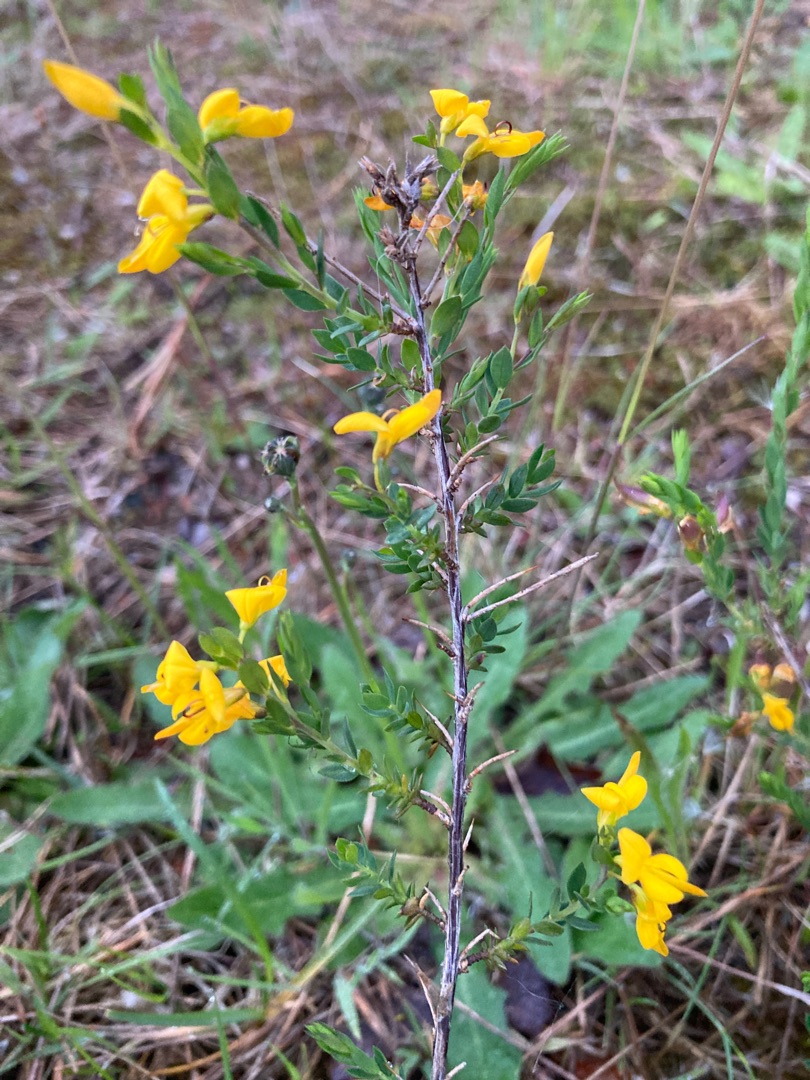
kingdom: Plantae
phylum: Tracheophyta
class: Magnoliopsida
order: Fabales
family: Fabaceae
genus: Genista
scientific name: Genista anglica
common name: Engelsk visse
